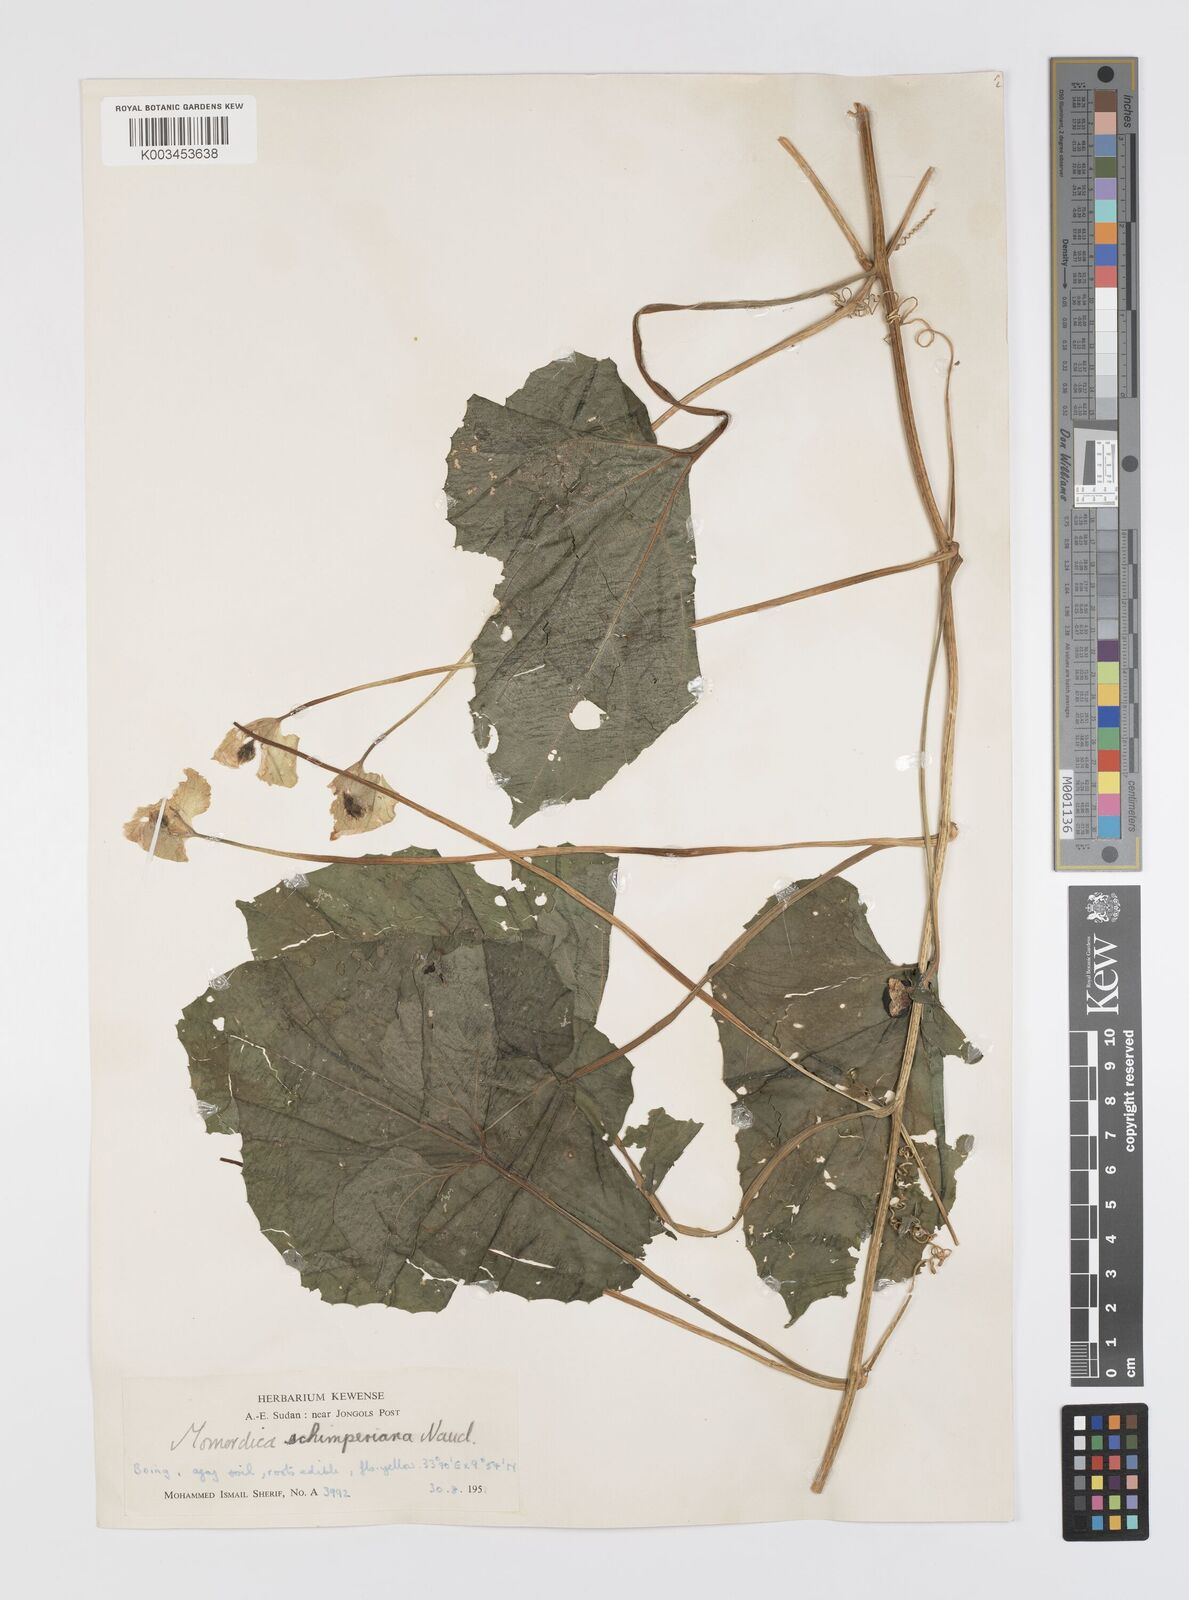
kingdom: Plantae
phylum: Tracheophyta
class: Magnoliopsida
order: Cucurbitales
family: Cucurbitaceae
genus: Momordica
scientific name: Momordica foetida
